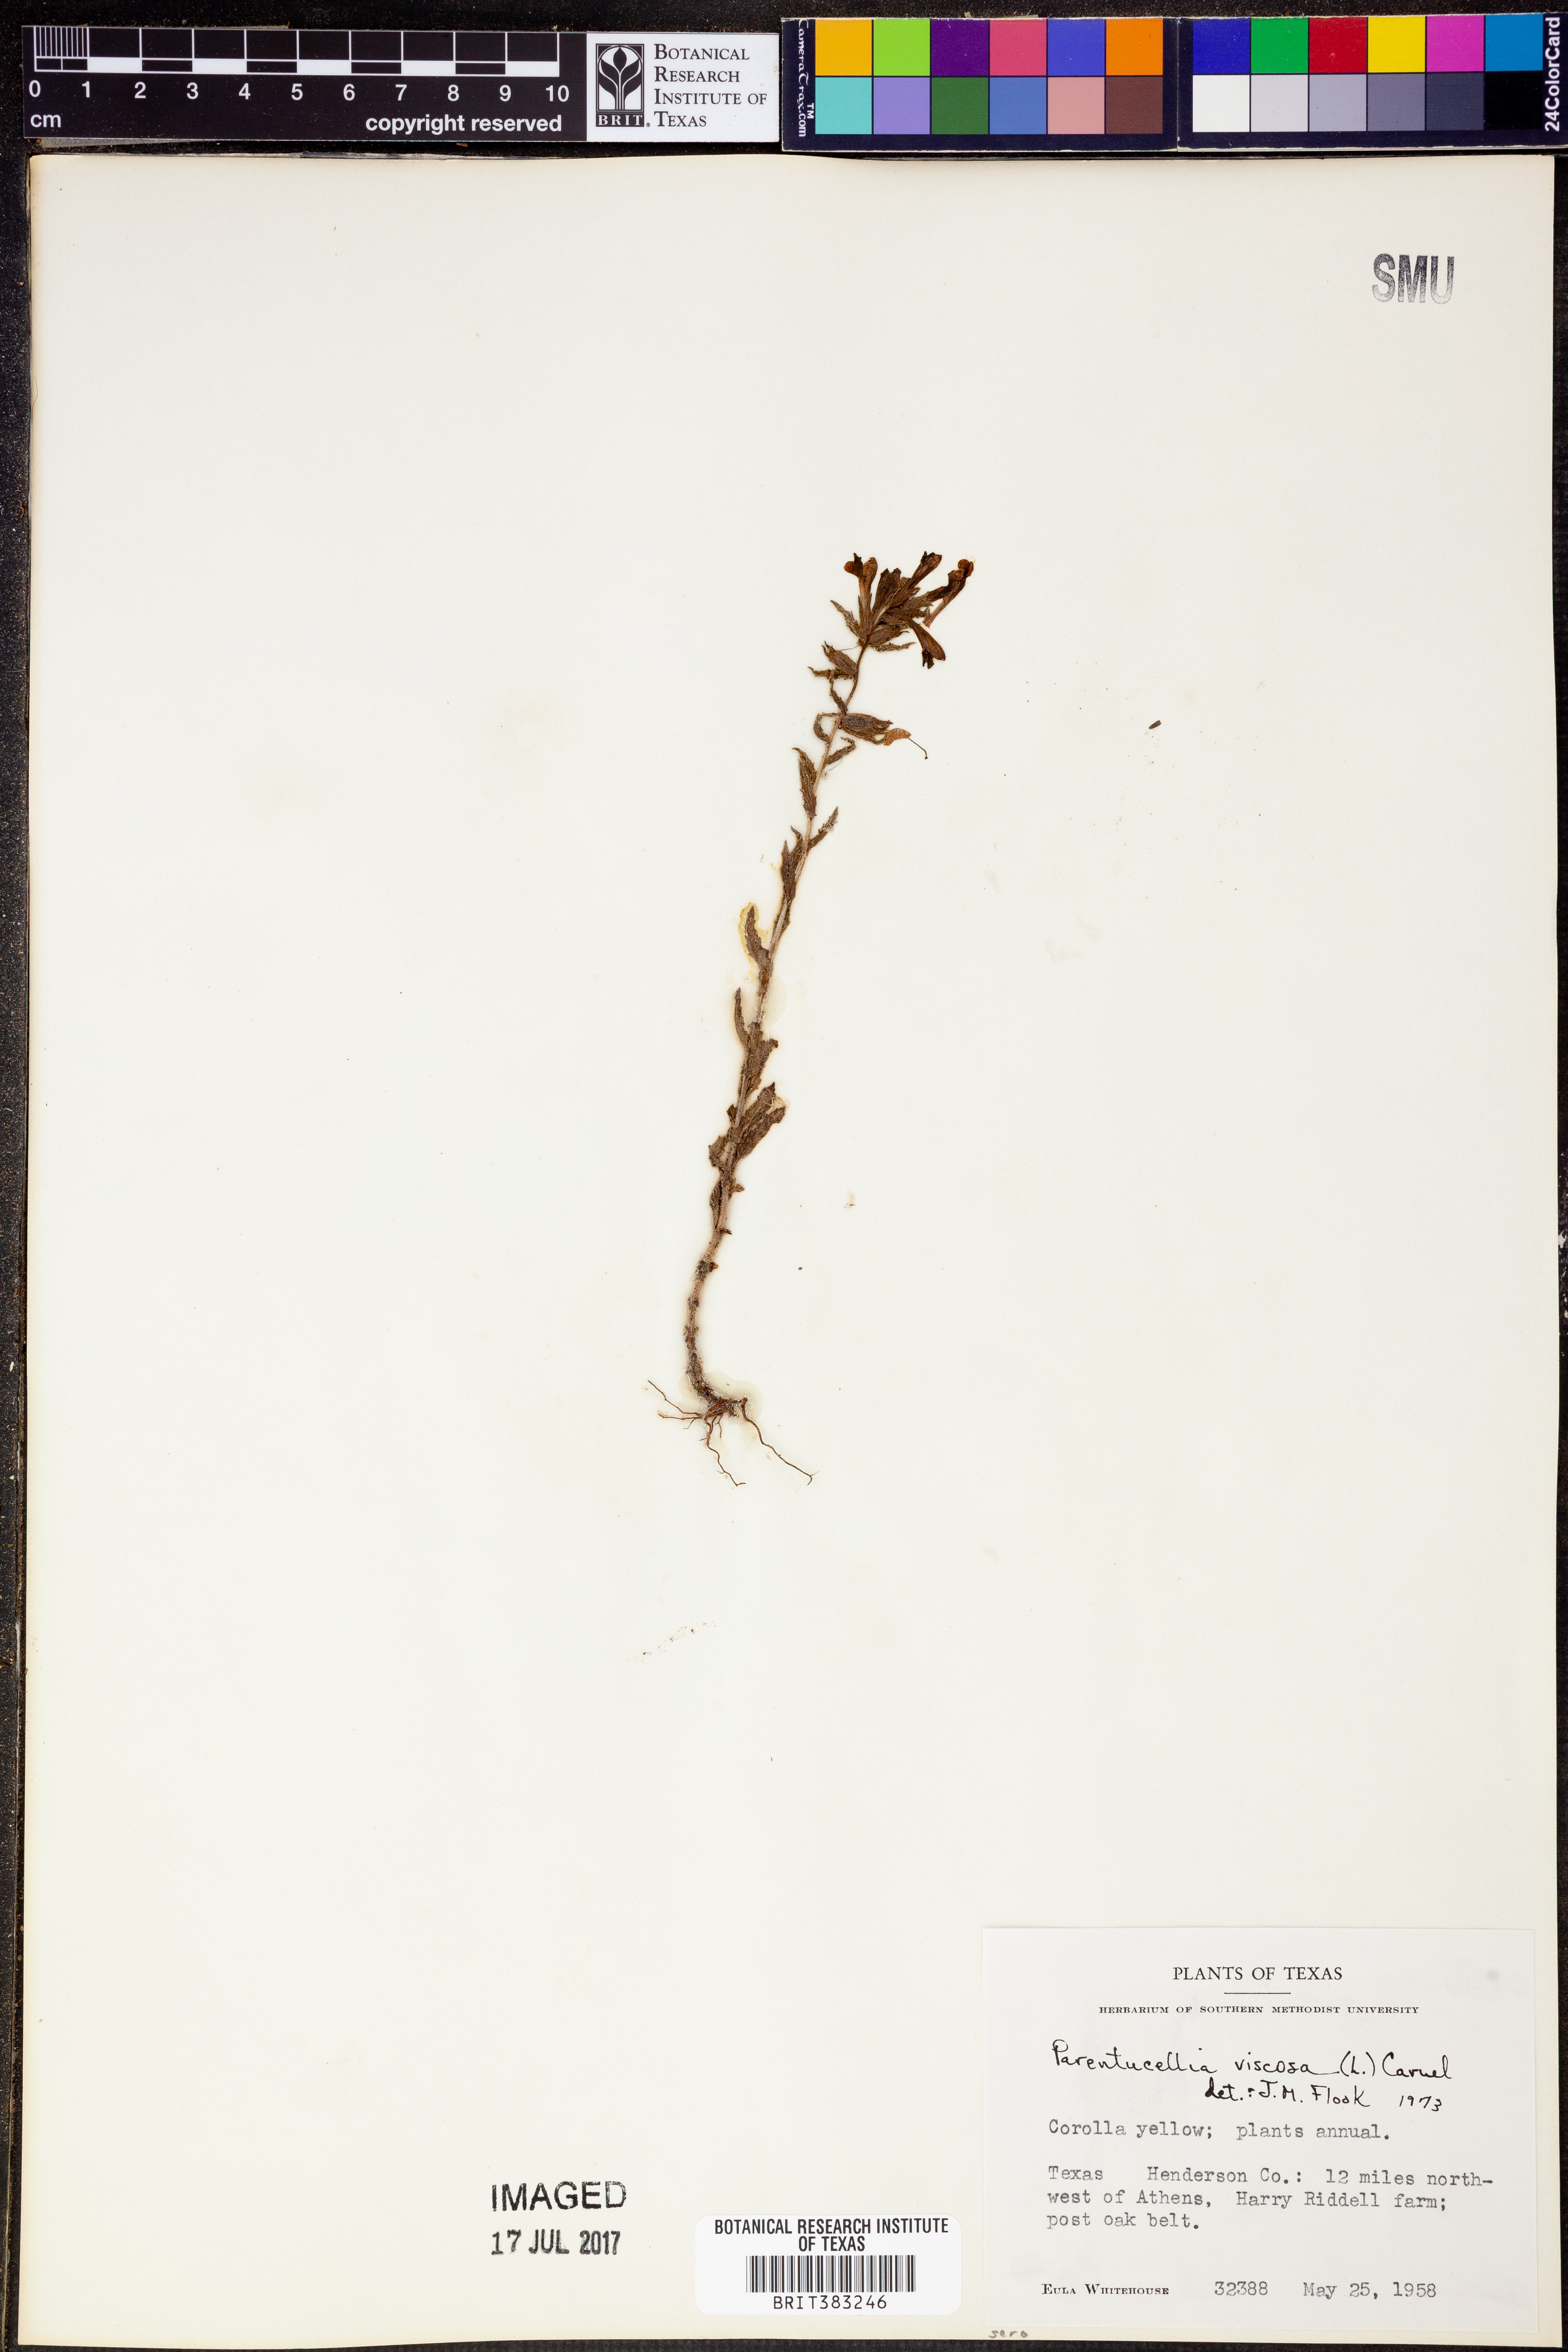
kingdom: Plantae
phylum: Tracheophyta
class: Magnoliopsida
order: Lamiales
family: Orobanchaceae
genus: Bellardia
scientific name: Bellardia viscosa
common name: Sticky parentucellia
